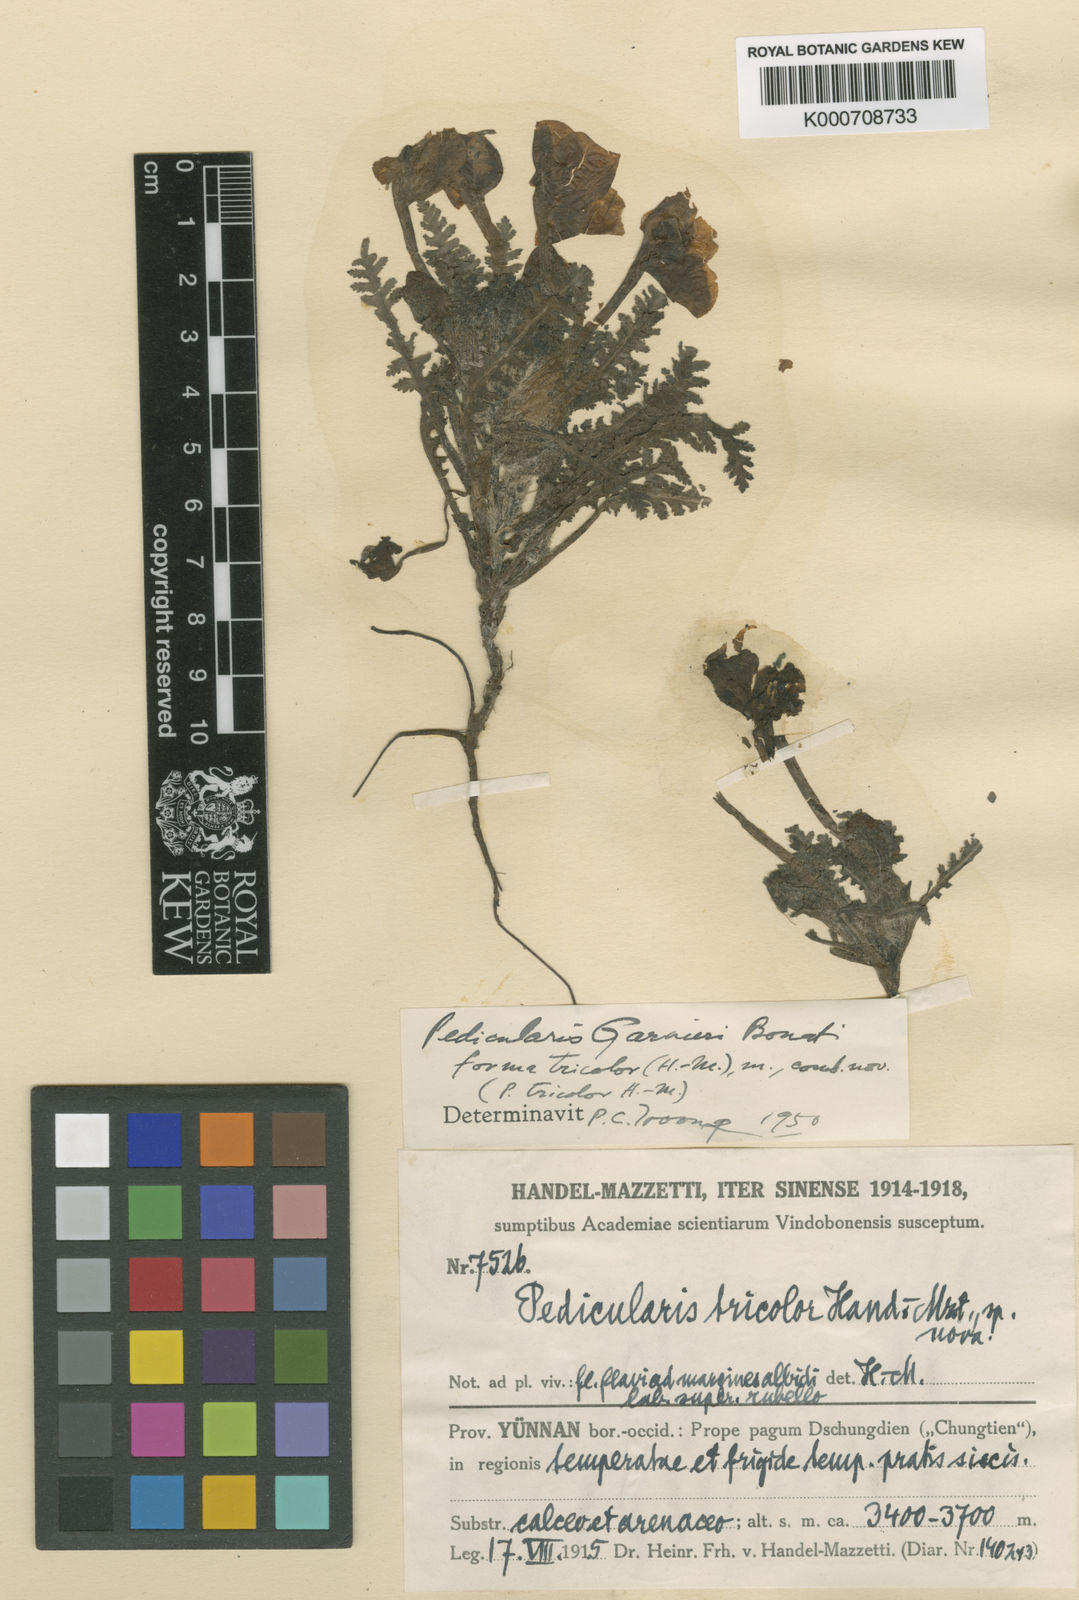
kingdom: Plantae
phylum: Tracheophyta
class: Magnoliopsida
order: Lamiales
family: Orobanchaceae
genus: Pedicularis
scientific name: Pedicularis cranolopha
